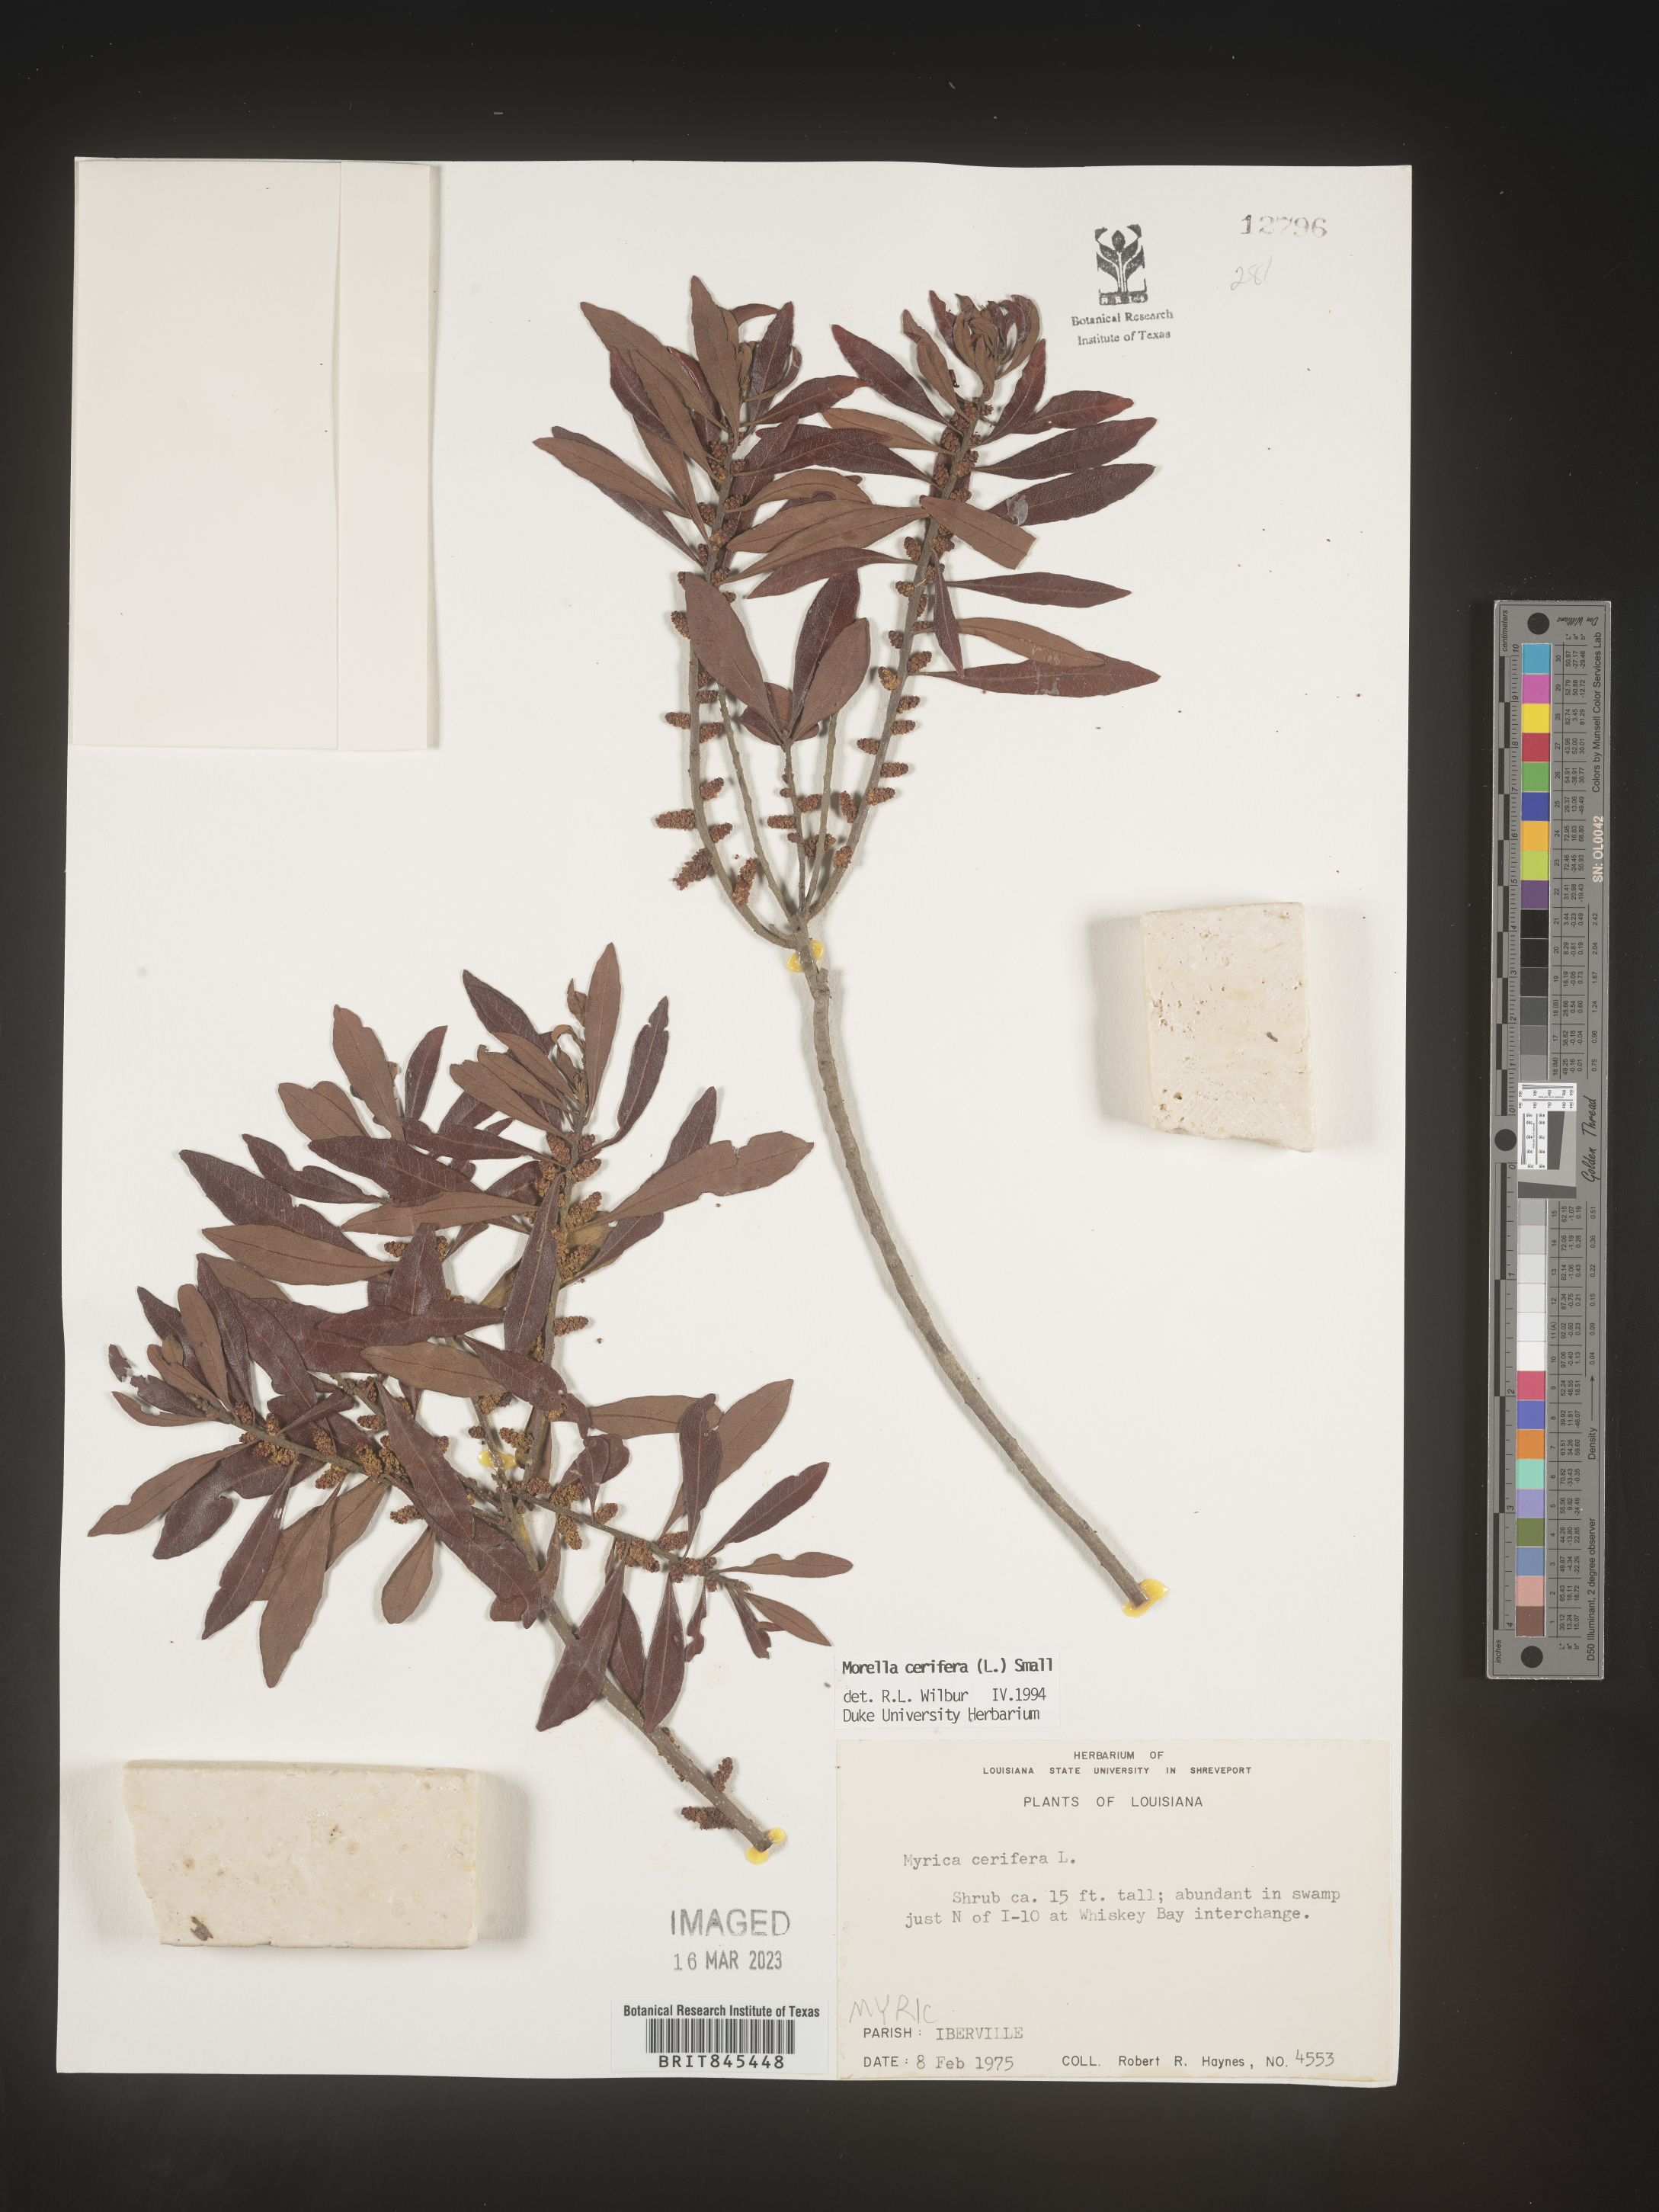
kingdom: Plantae
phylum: Tracheophyta
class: Magnoliopsida
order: Fagales
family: Myricaceae
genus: Morella
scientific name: Morella cerifera
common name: Wax myrtle
